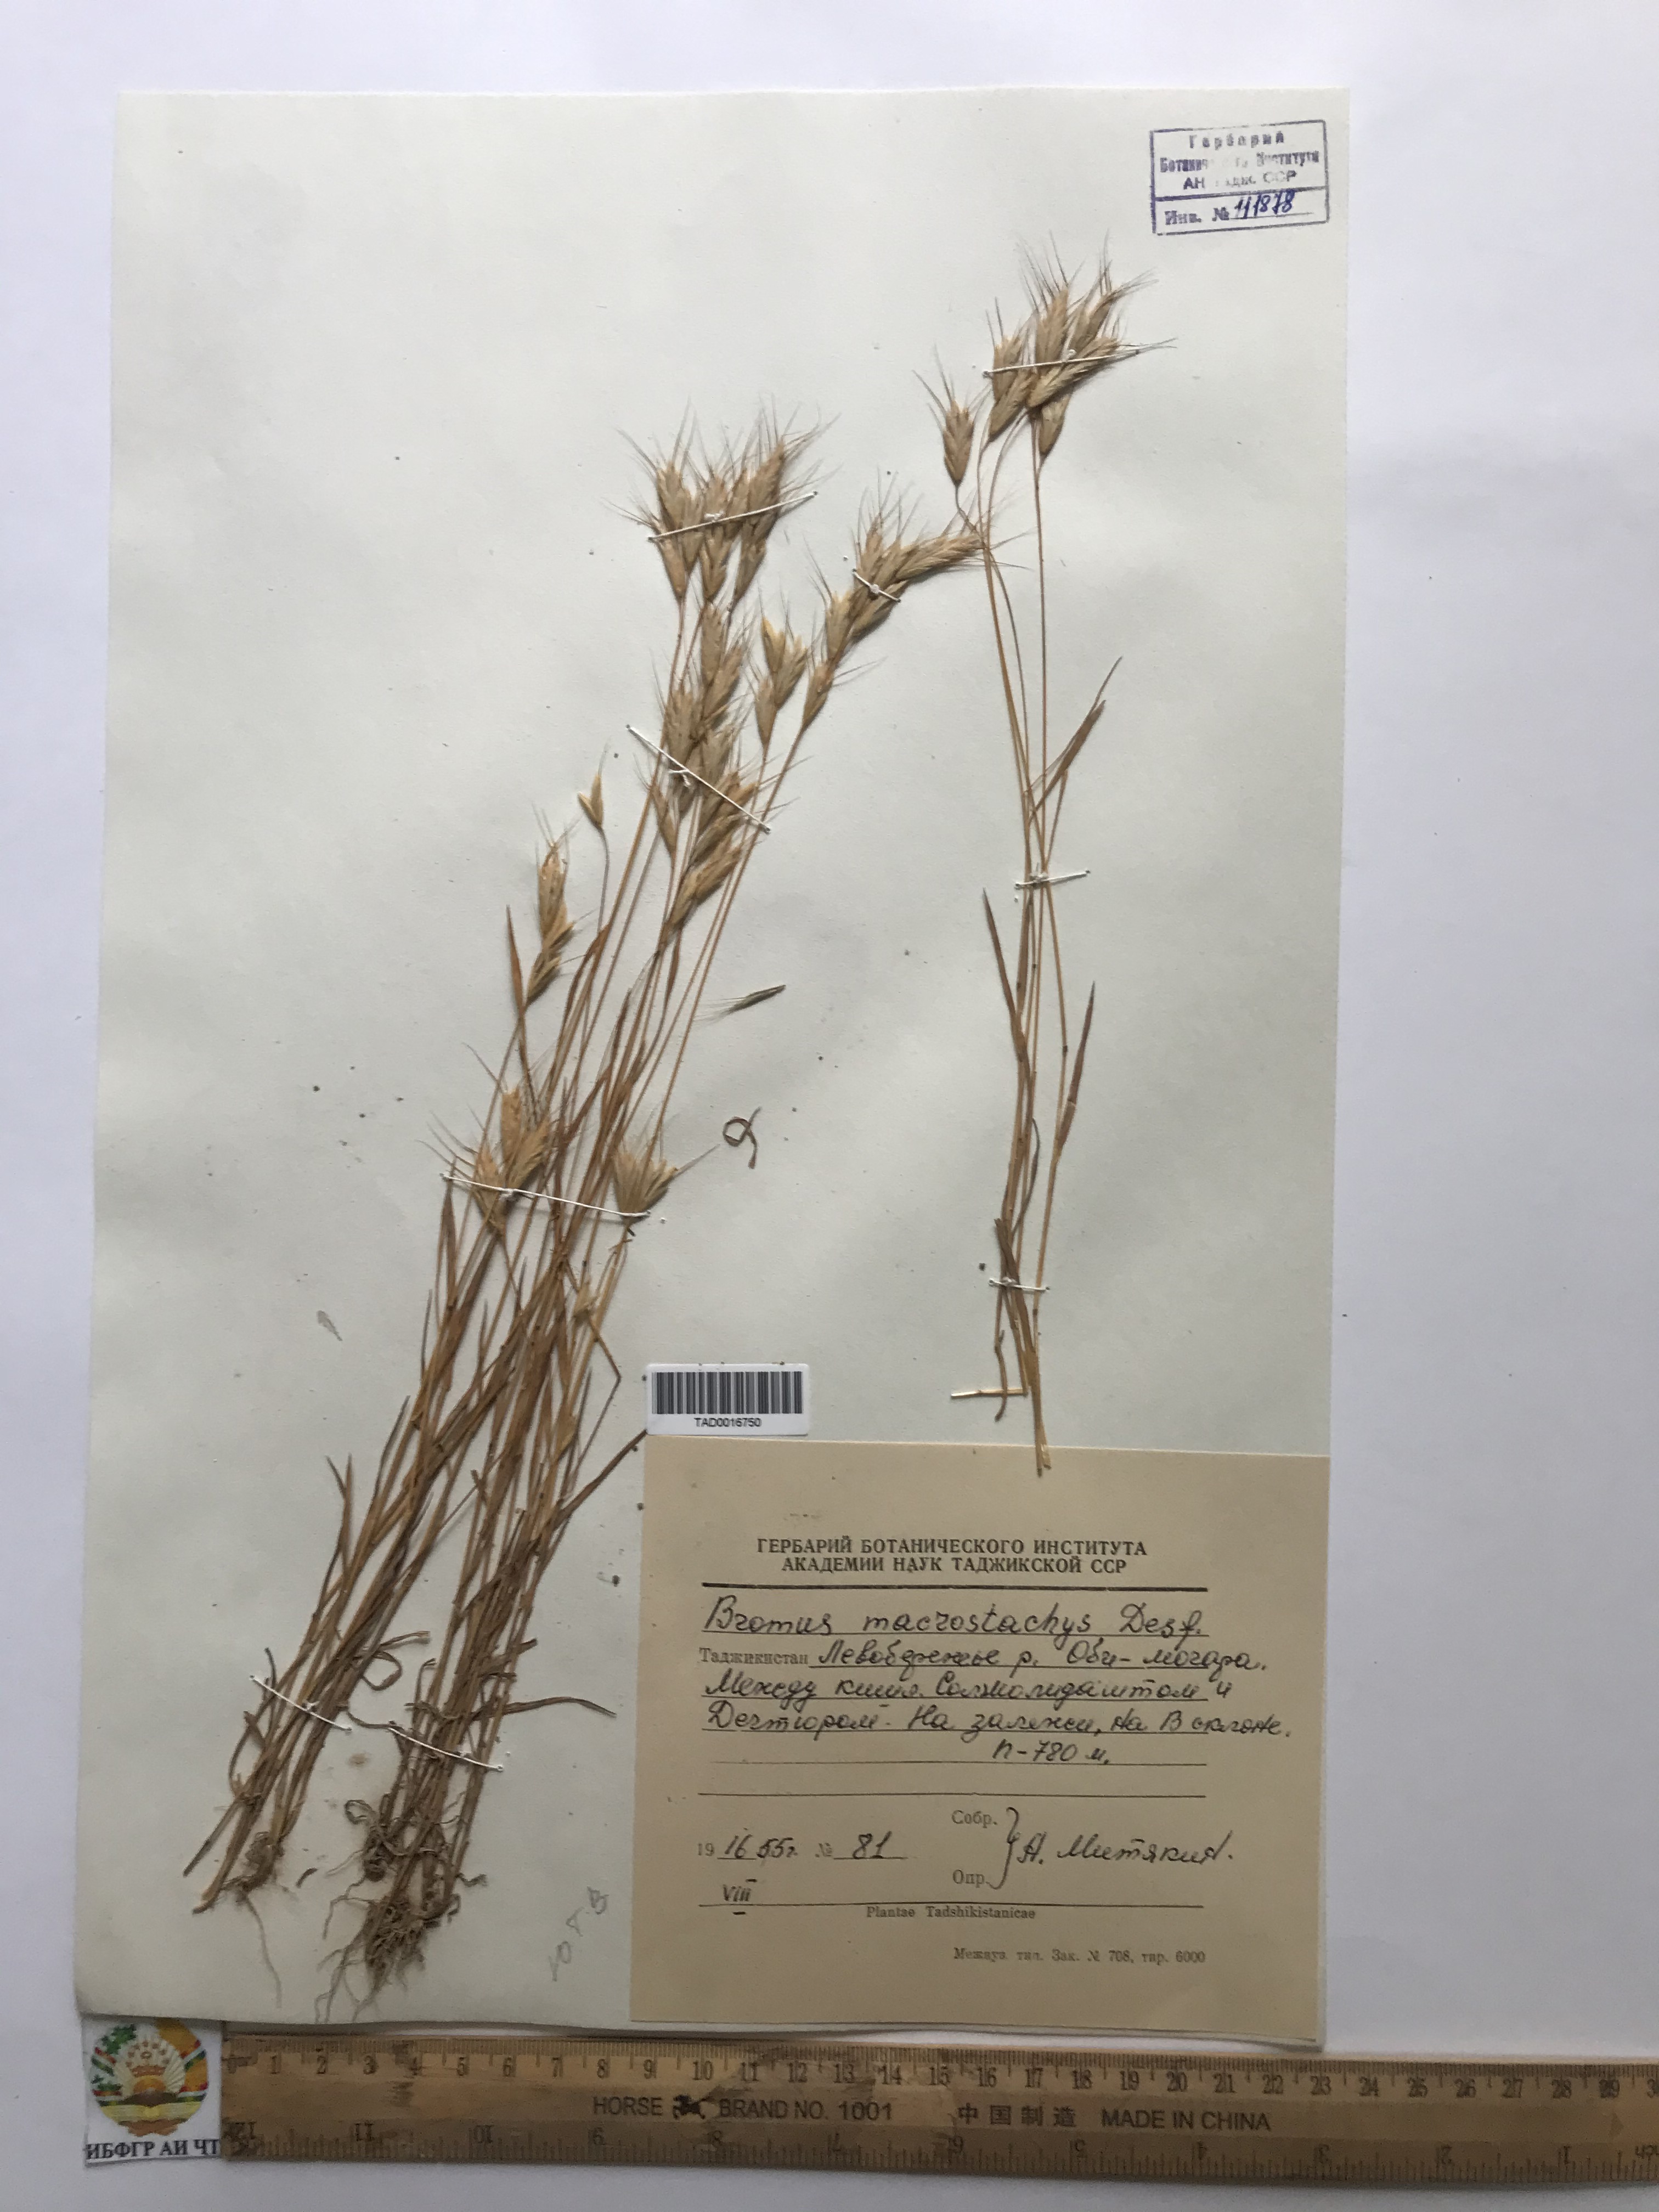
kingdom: Plantae
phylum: Tracheophyta
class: Liliopsida
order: Poales
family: Poaceae
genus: Bromus
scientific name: Bromus lanceolatus
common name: Mediterranean brome
